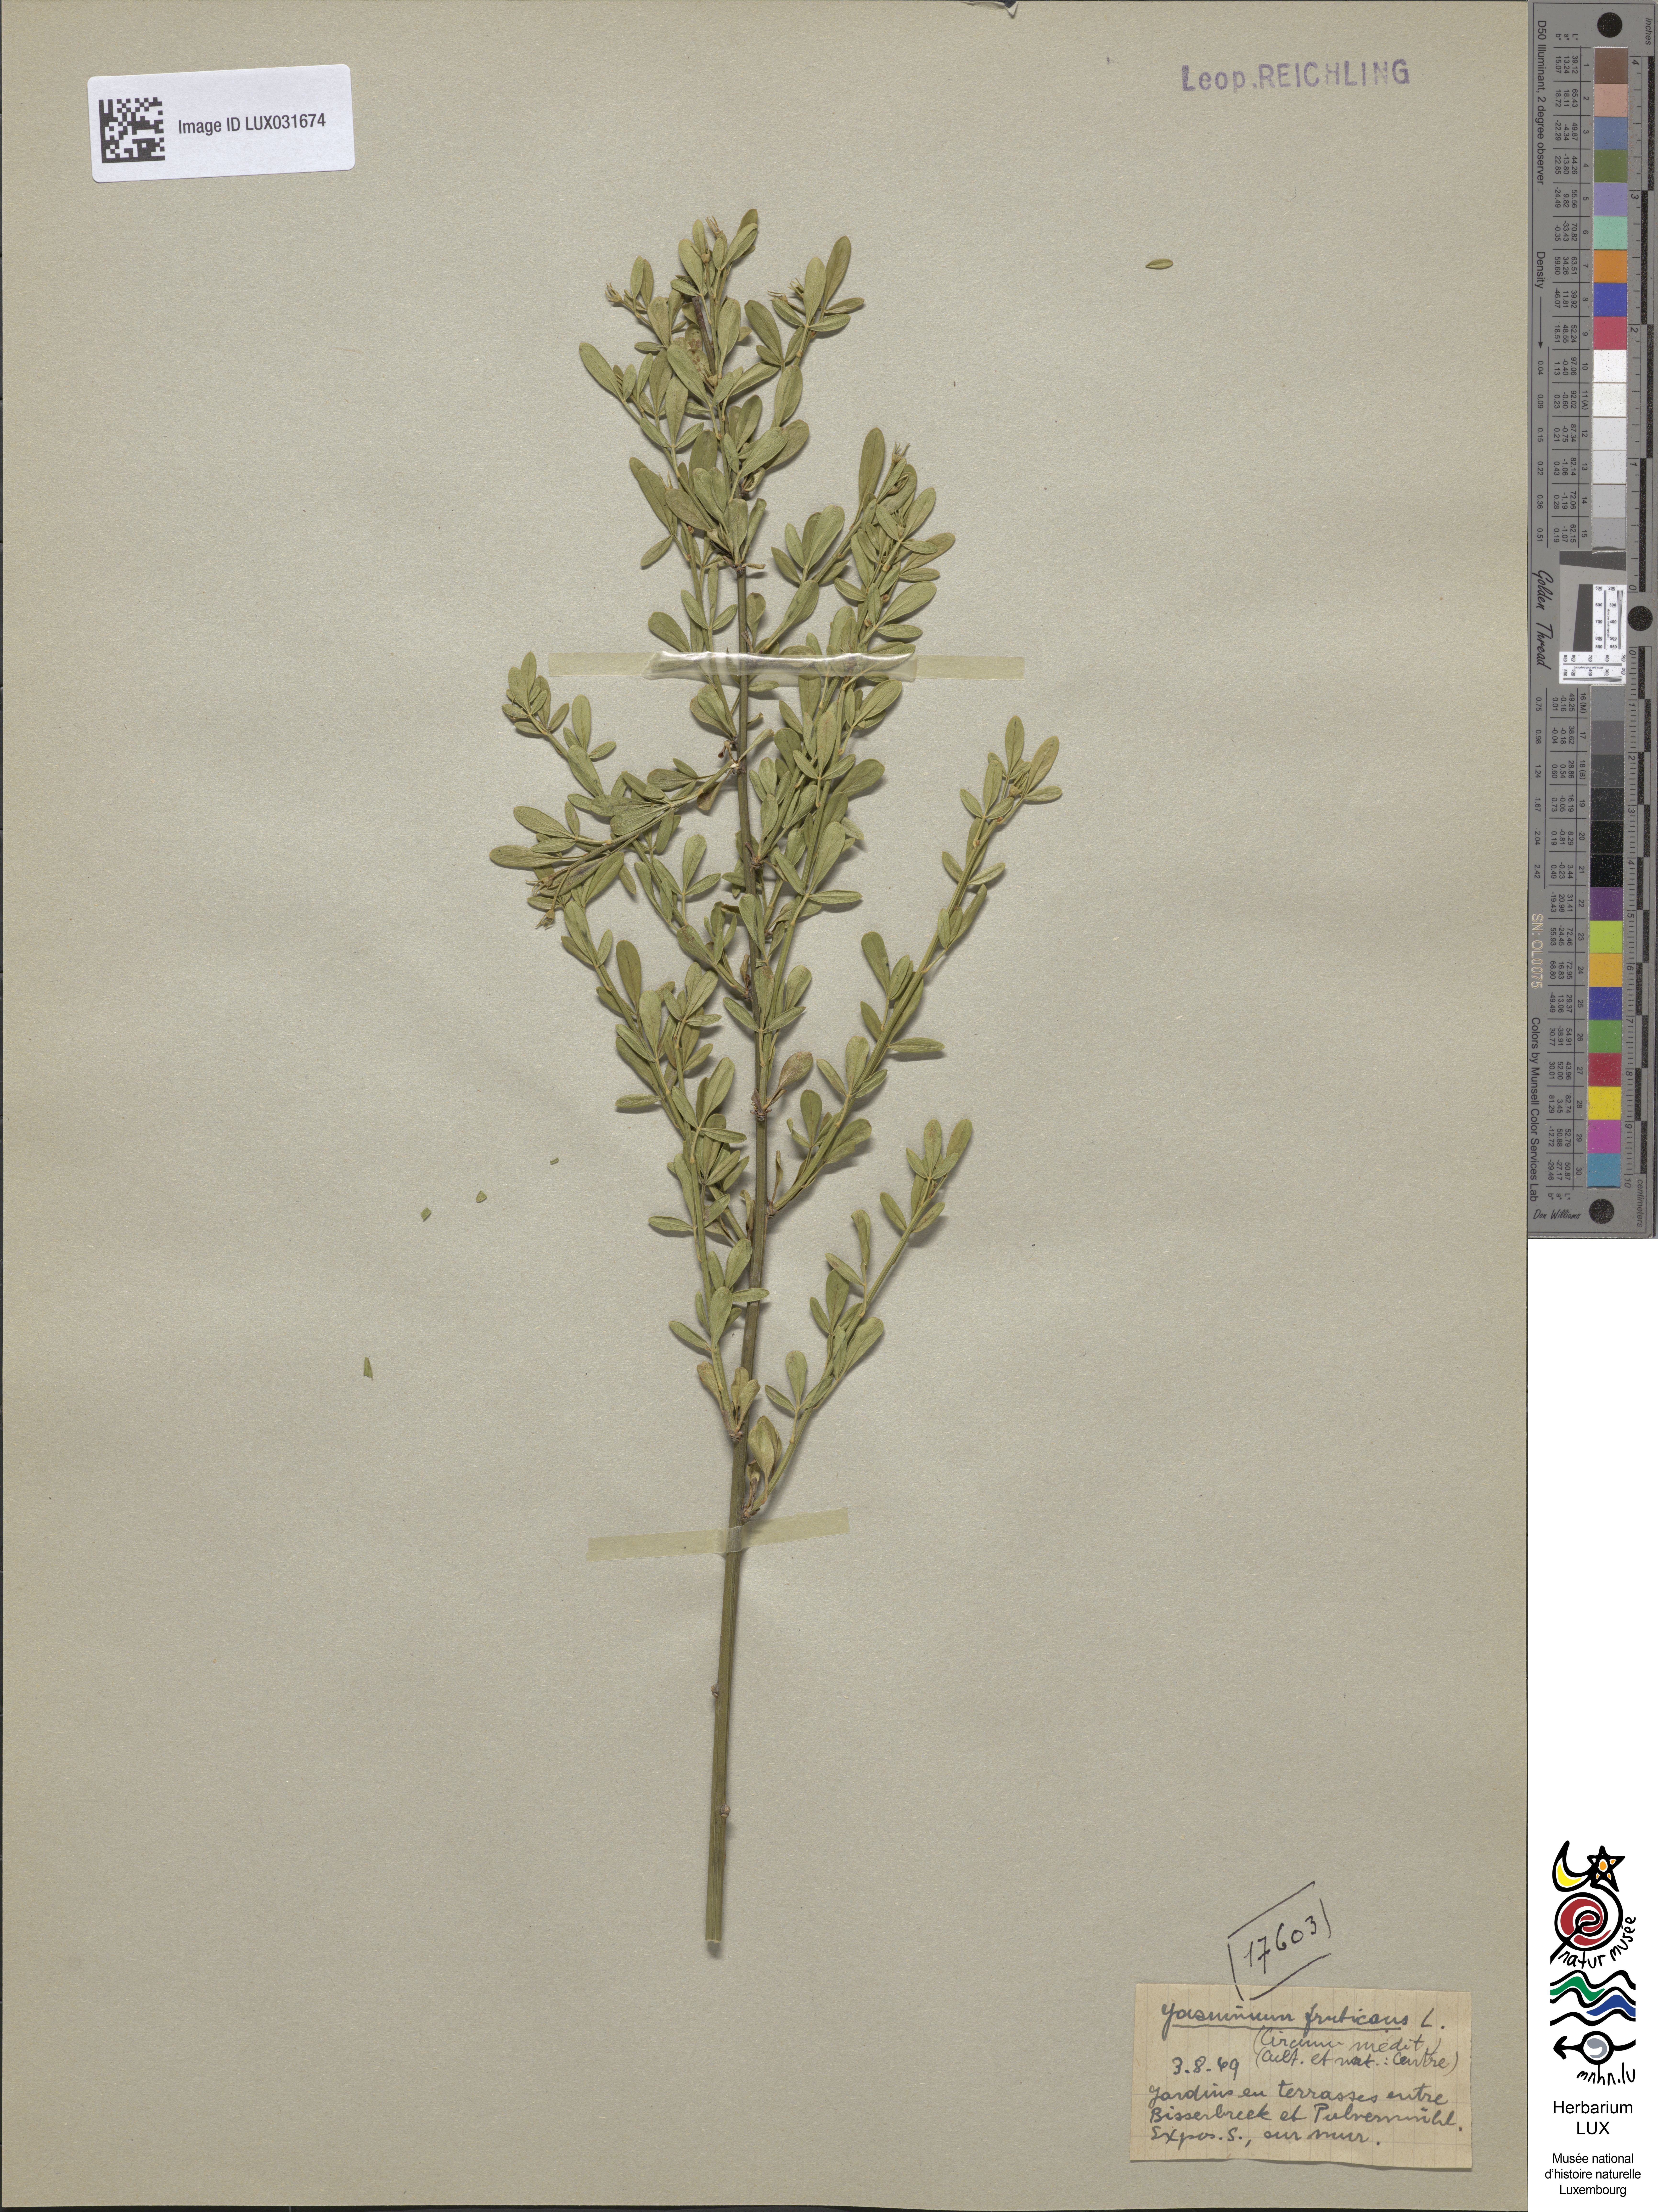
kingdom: Plantae
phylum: Tracheophyta
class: Magnoliopsida
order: Lamiales
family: Oleaceae
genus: Chrysojasminum
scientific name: Chrysojasminum fruticans
